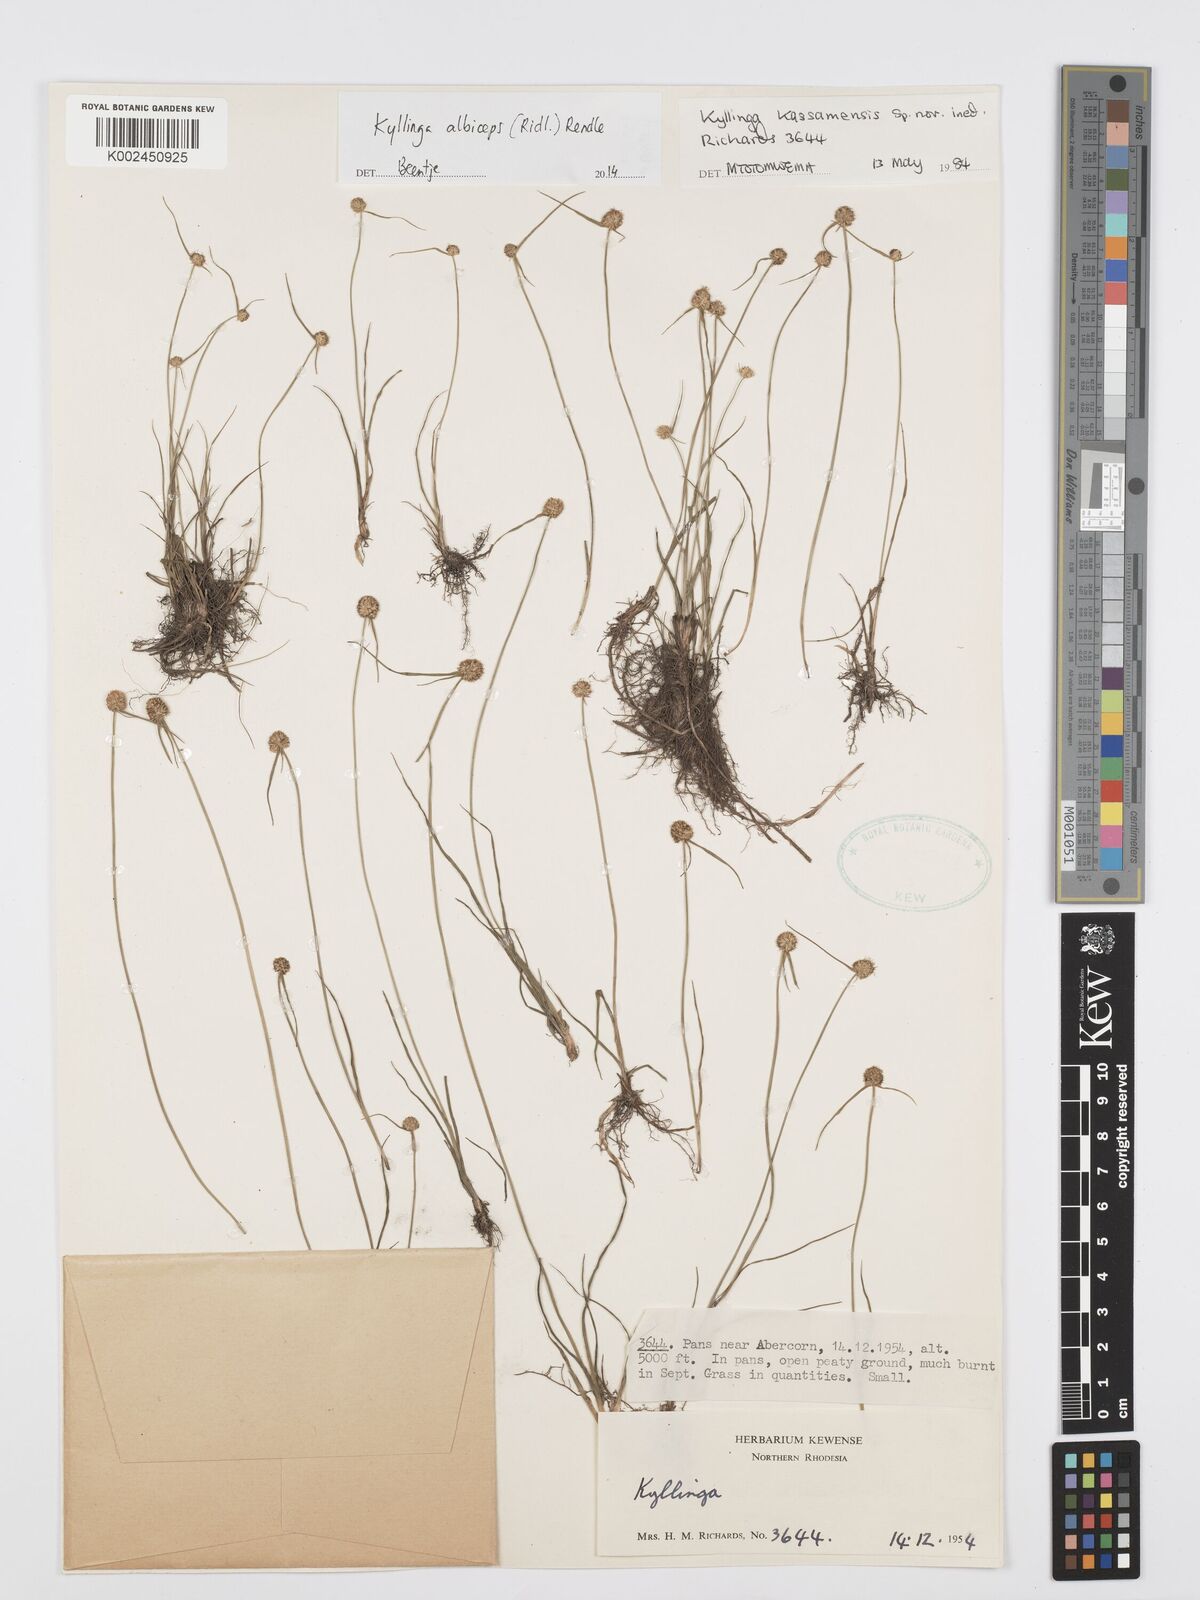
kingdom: Plantae
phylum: Tracheophyta
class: Liliopsida
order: Poales
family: Cyperaceae
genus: Cyperus
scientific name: Cyperus albiceps
